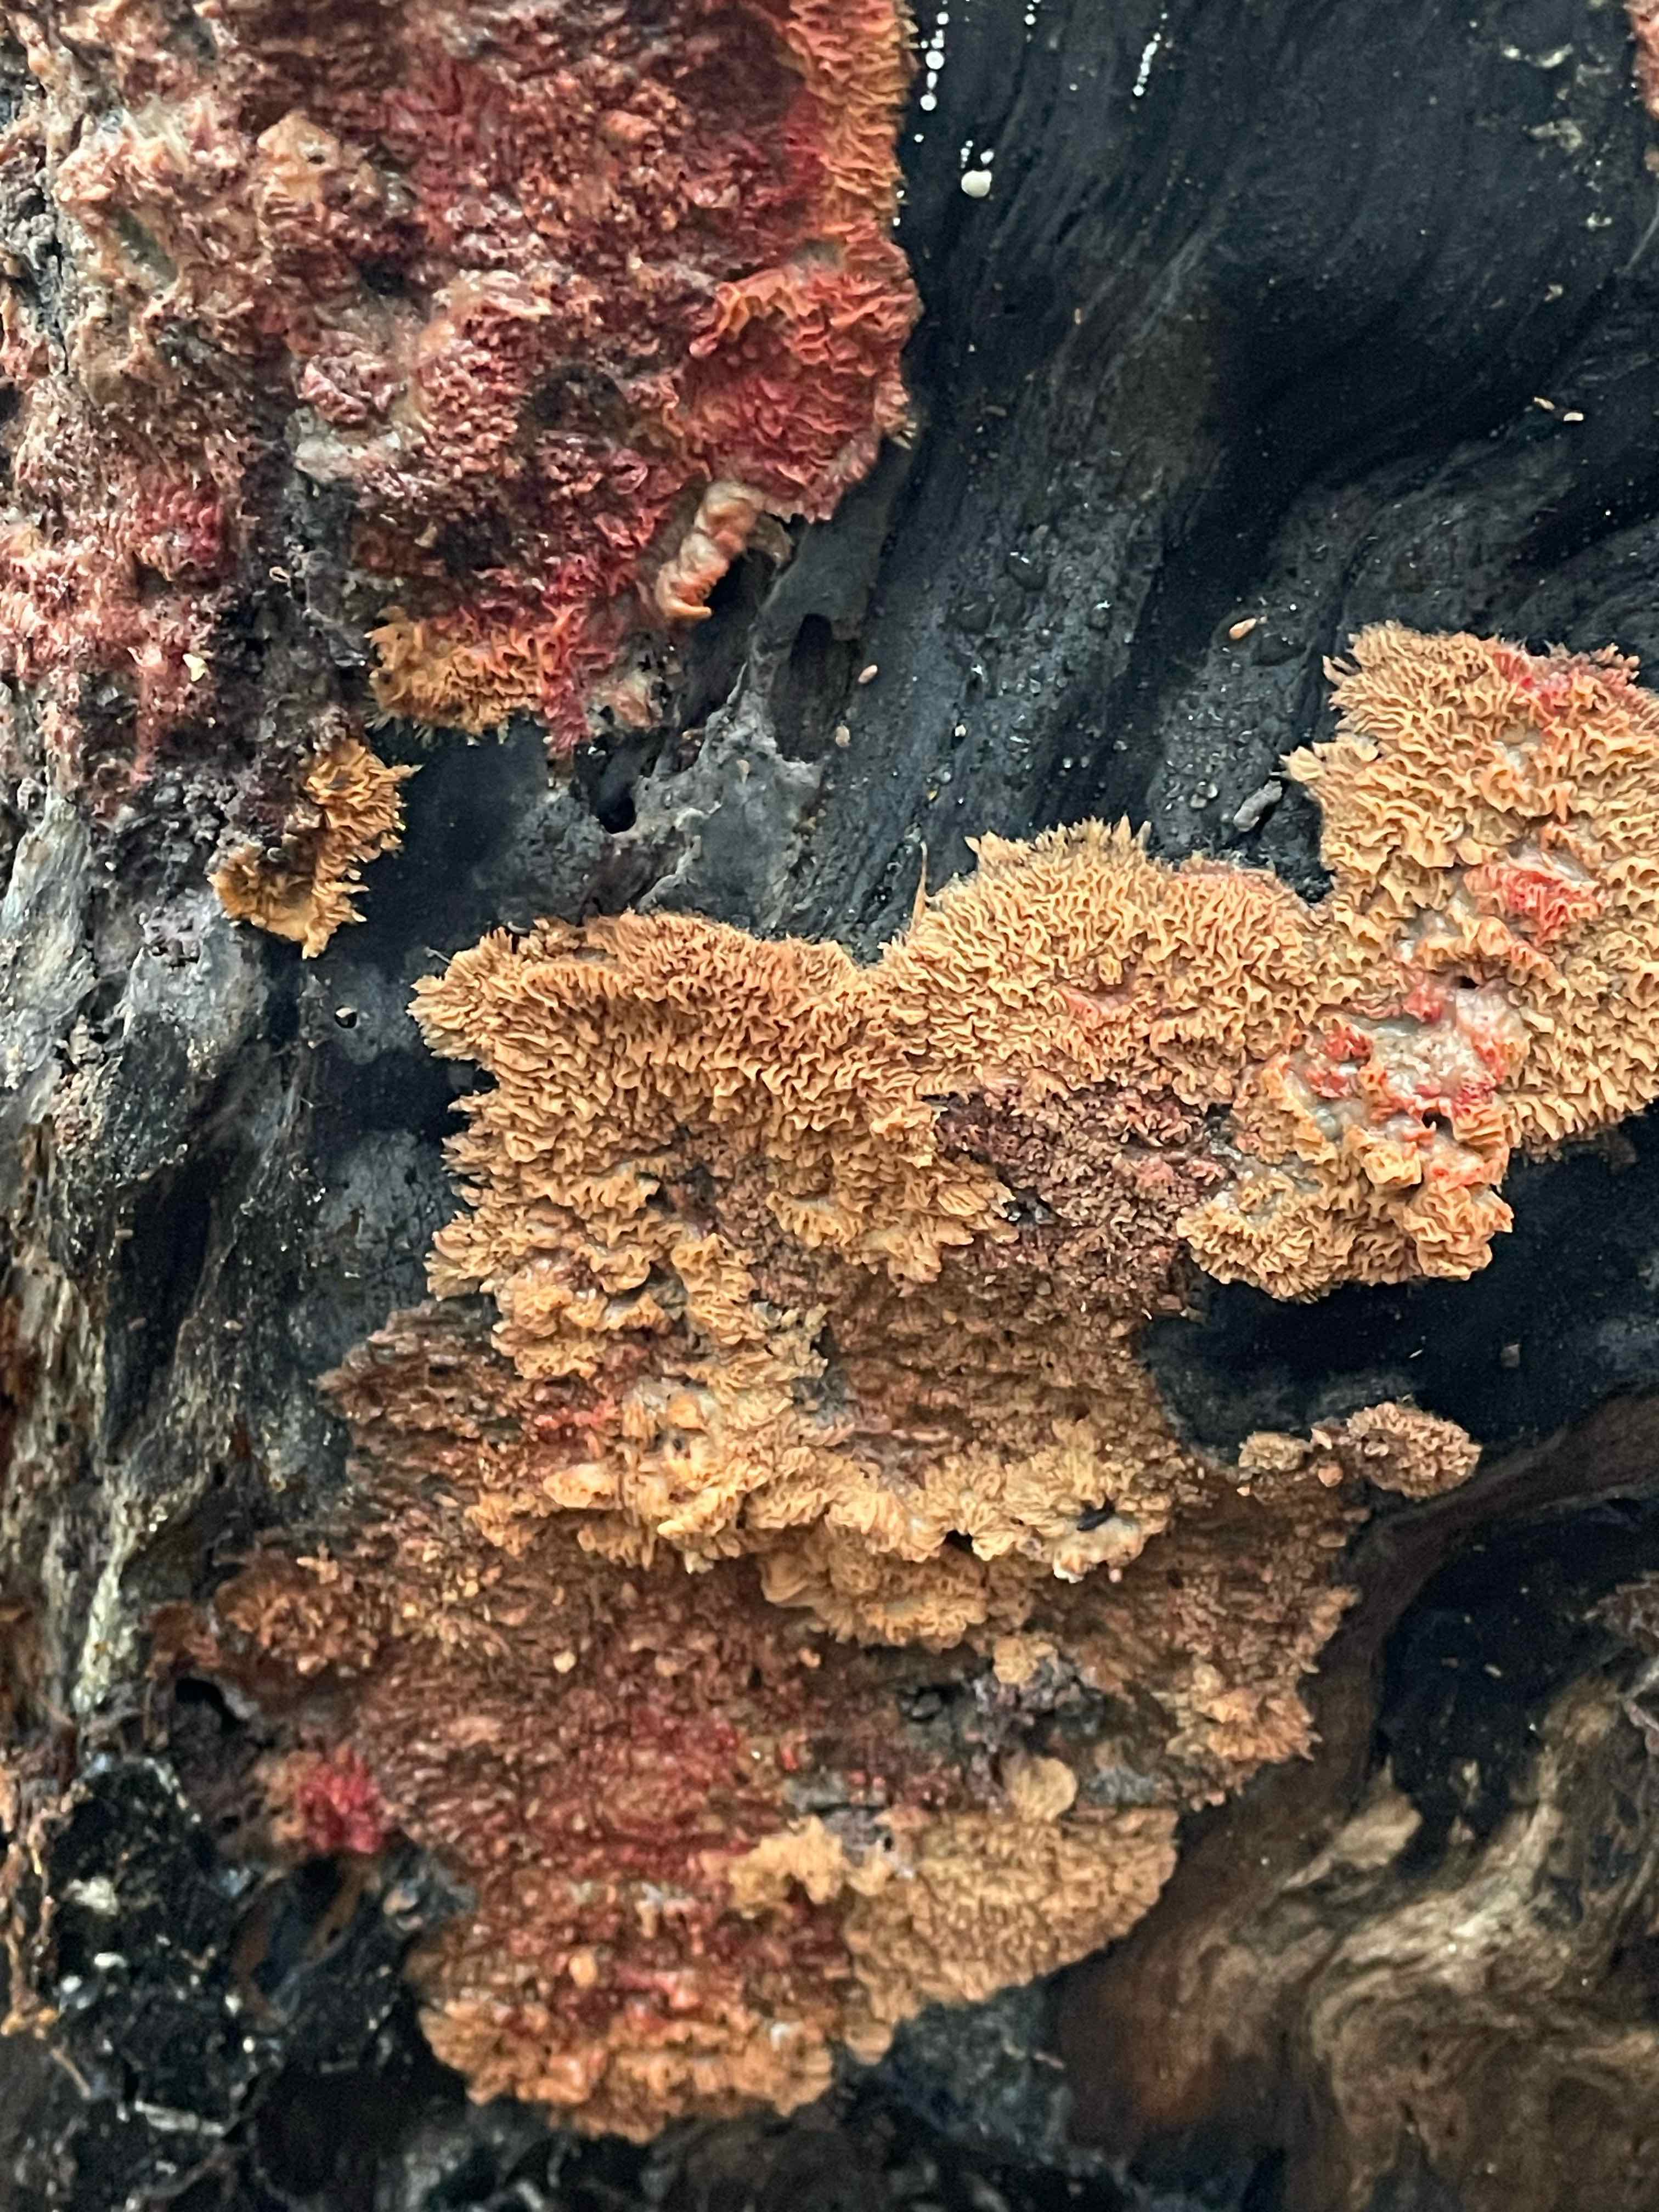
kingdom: Fungi
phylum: Basidiomycota
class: Agaricomycetes
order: Polyporales
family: Meruliaceae
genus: Phlebia
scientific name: Phlebia tremellosa
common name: bævrende åresvamp
